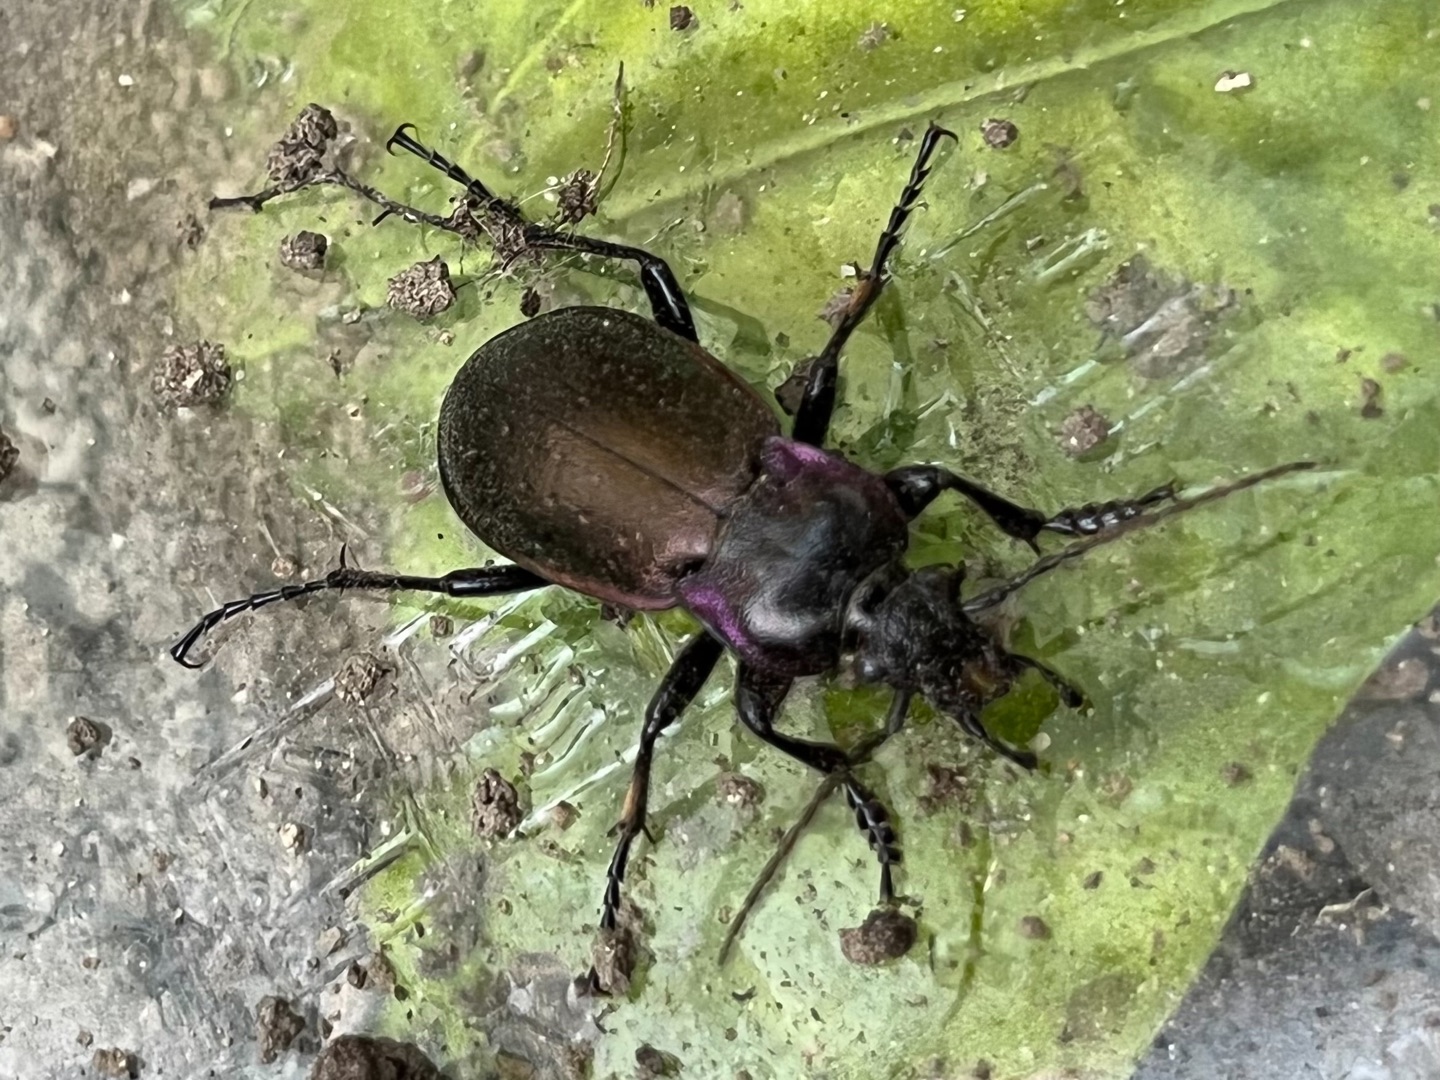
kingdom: Animalia
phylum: Arthropoda
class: Insecta
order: Coleoptera
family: Carabidae
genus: Carabus
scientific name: Carabus nemoralis
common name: Kratløber
